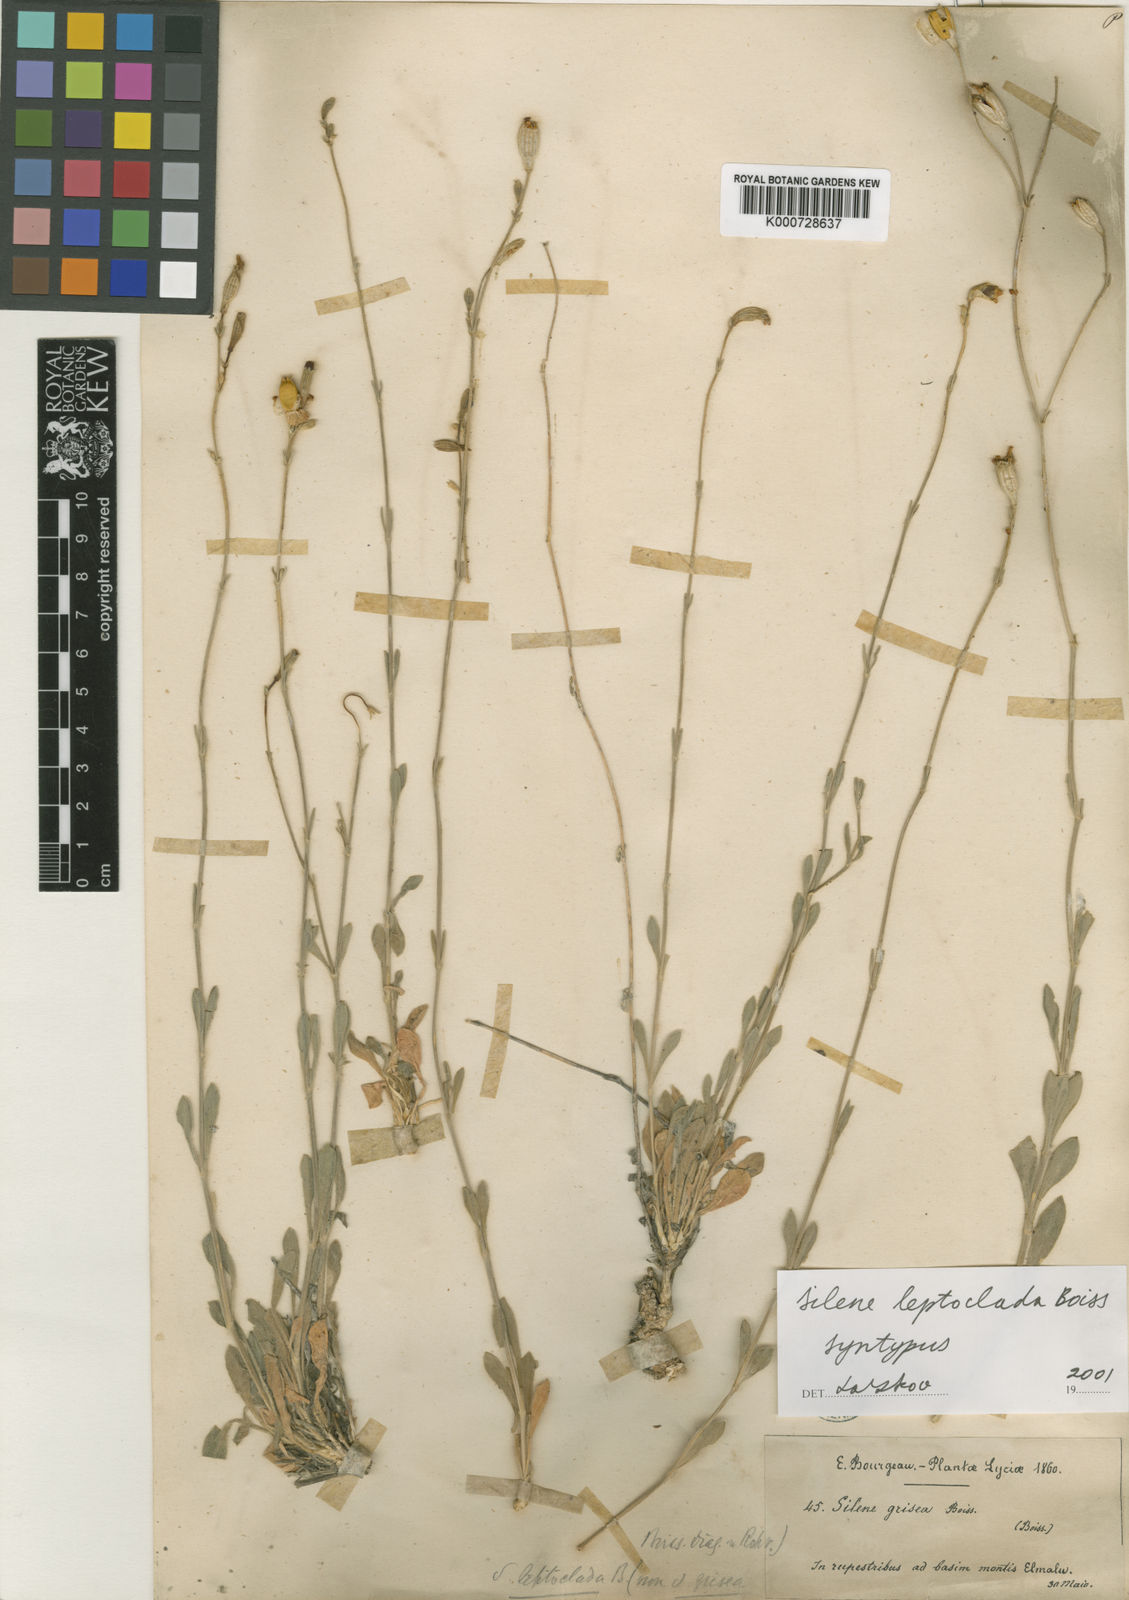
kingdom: Plantae
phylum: Tracheophyta
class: Magnoliopsida
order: Caryophyllales
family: Caryophyllaceae
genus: Silene
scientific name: Silene leptoclada
